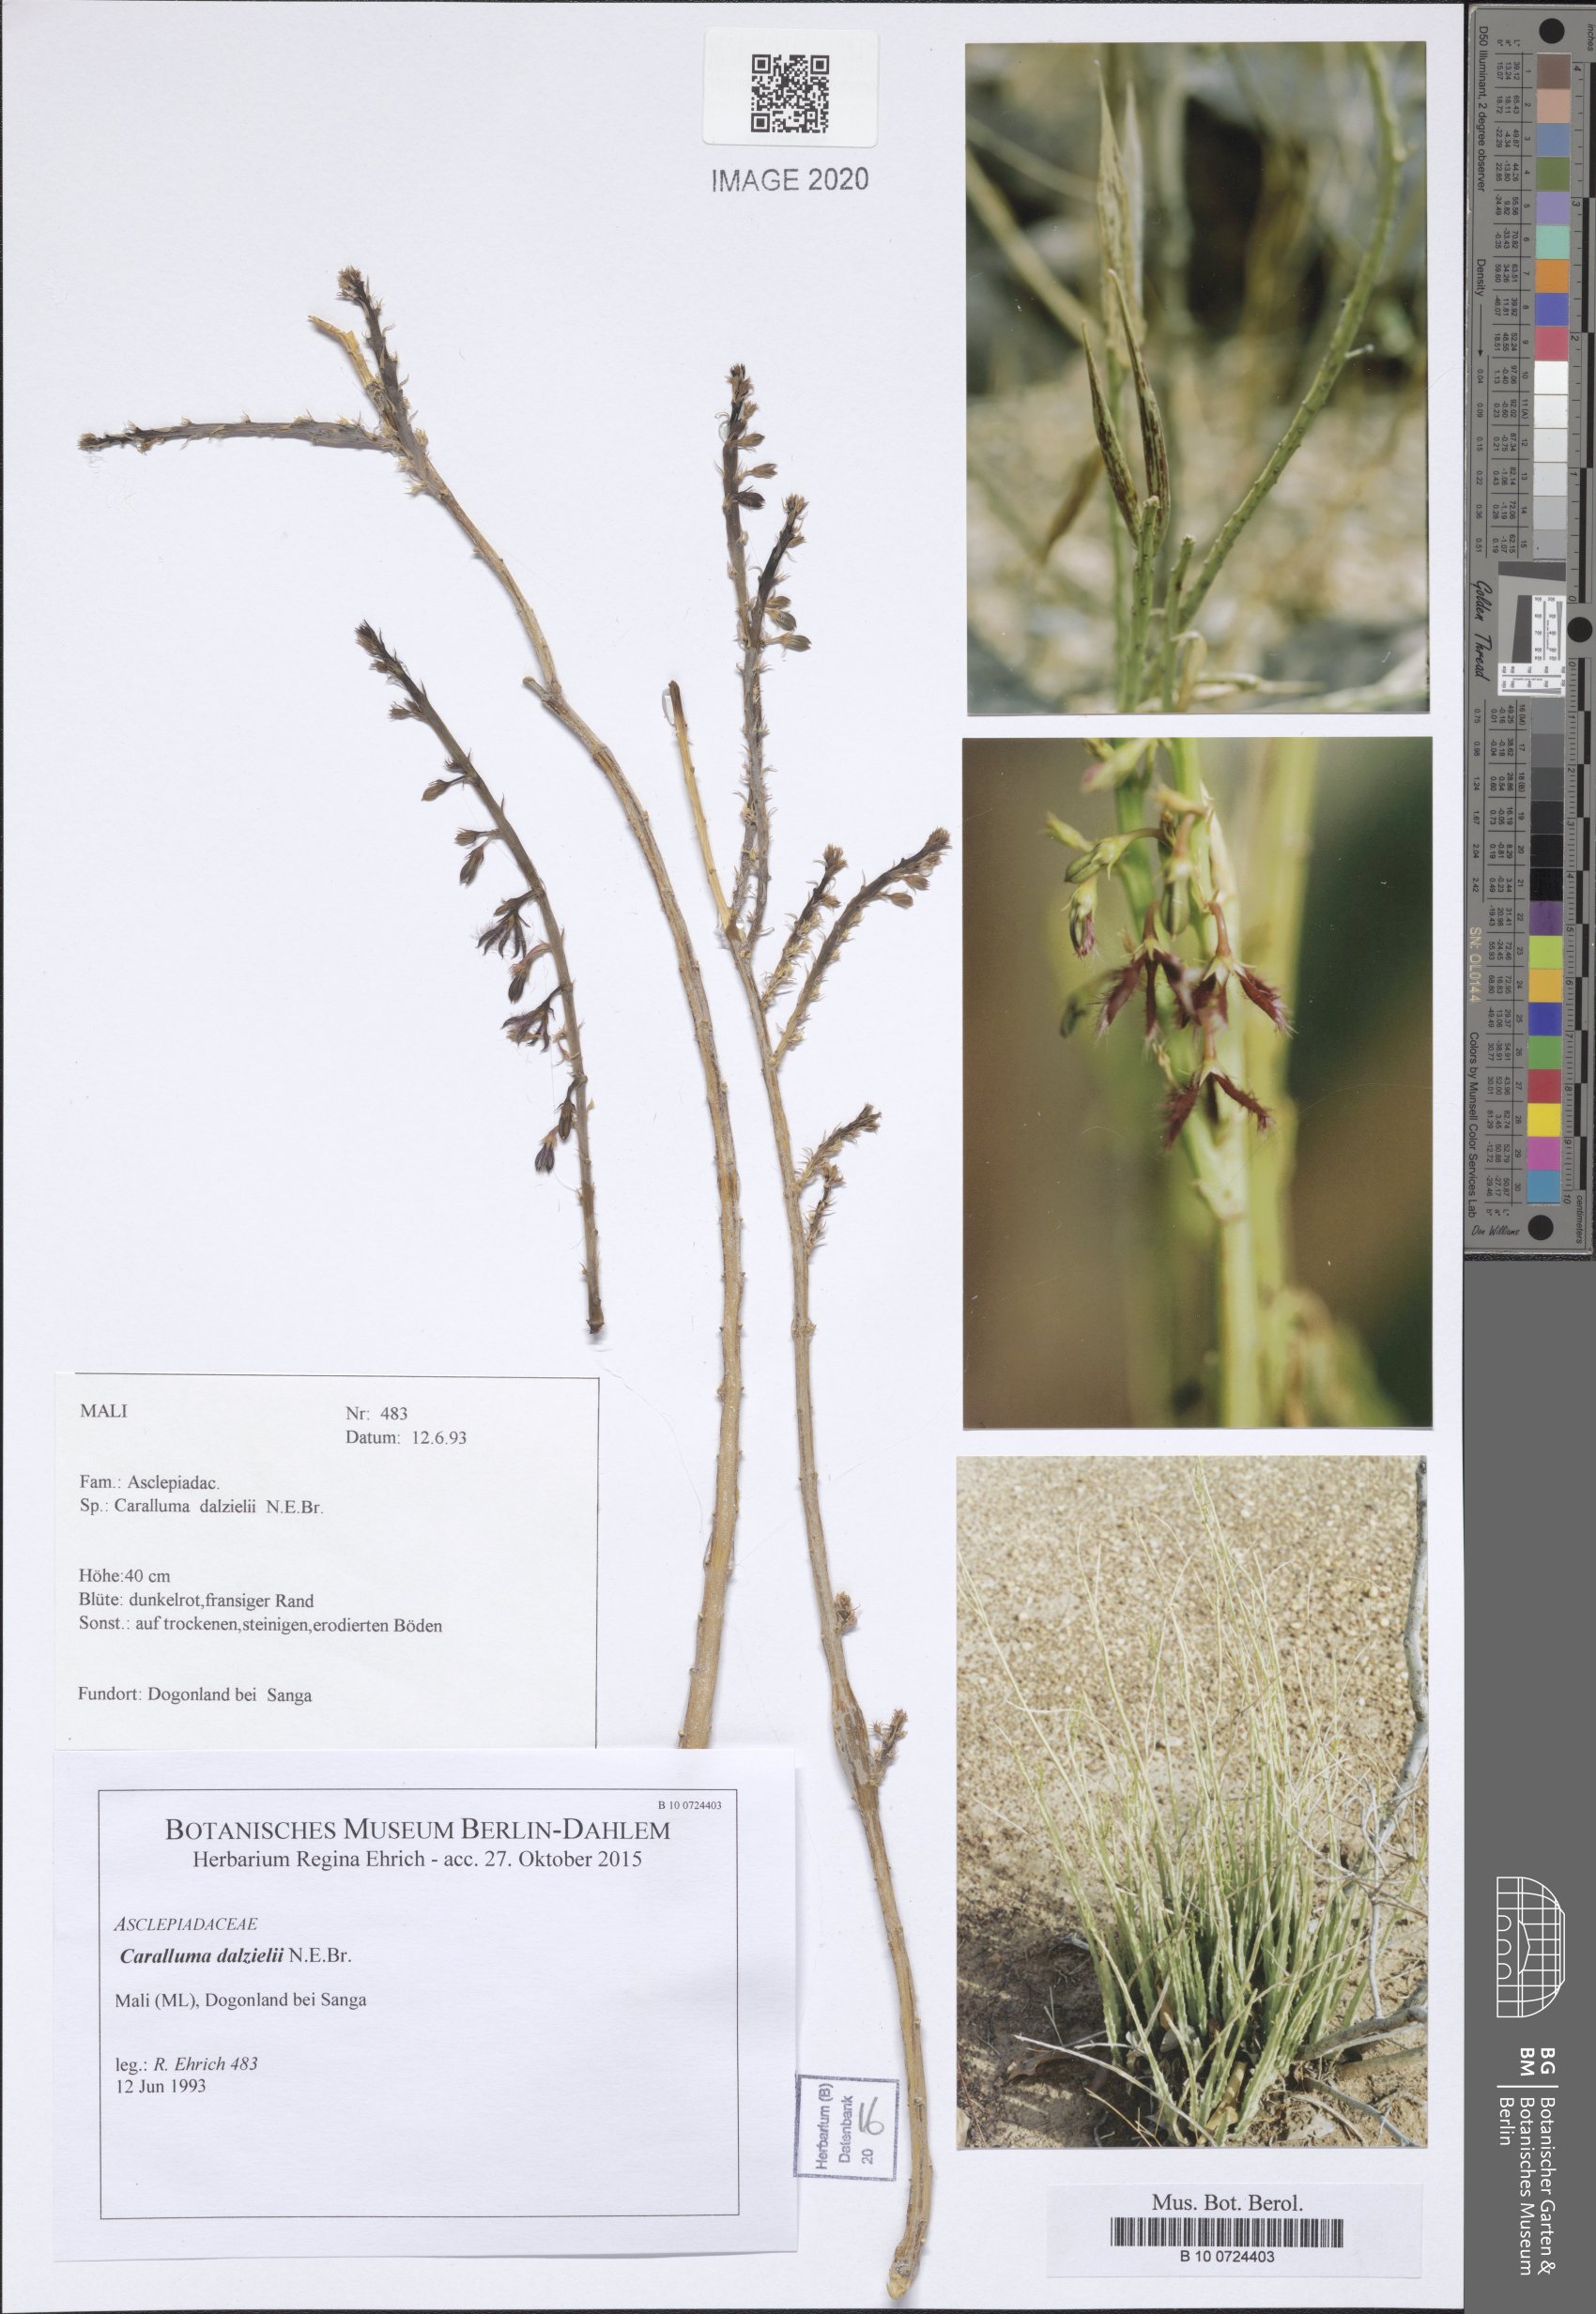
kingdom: Plantae
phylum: Tracheophyta
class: Magnoliopsida
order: Gentianales
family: Apocynaceae
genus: Ceropegia
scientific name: Ceropegia sudanica
